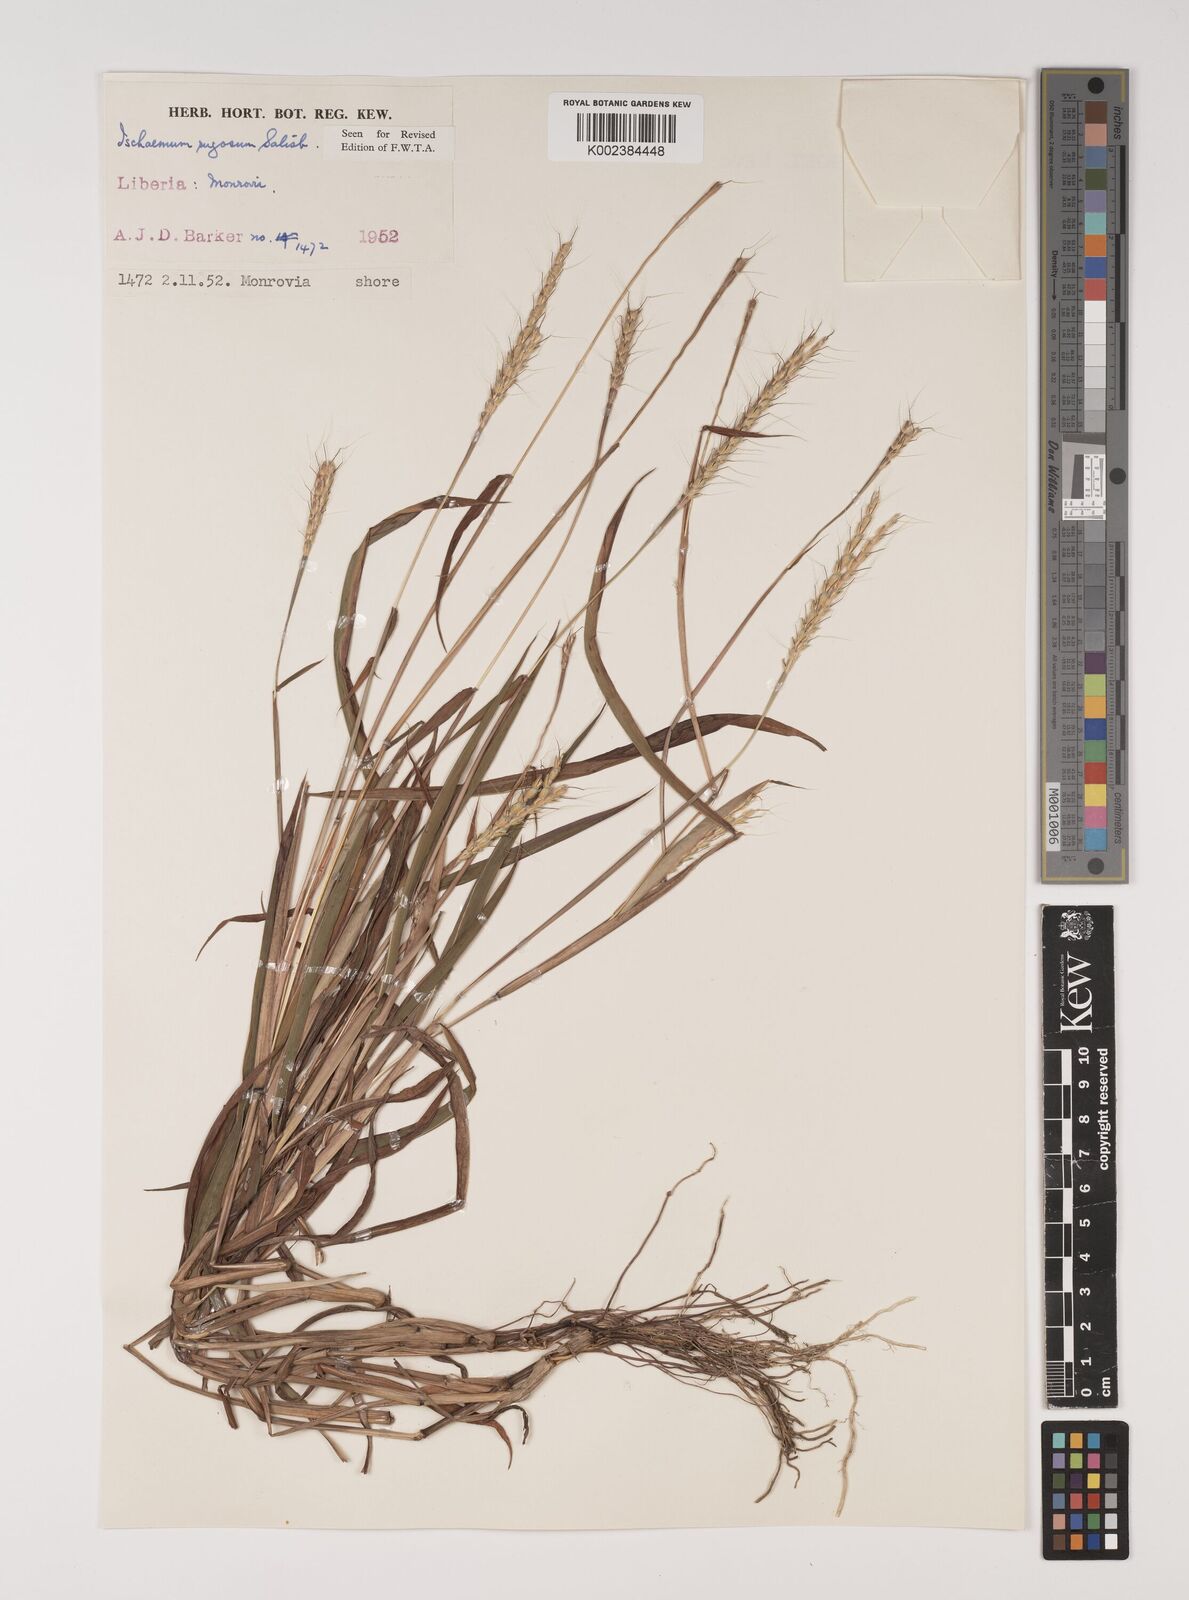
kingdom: Plantae
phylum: Tracheophyta
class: Liliopsida
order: Poales
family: Poaceae
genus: Ischaemum
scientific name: Ischaemum rugosum
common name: Saramatta grass
